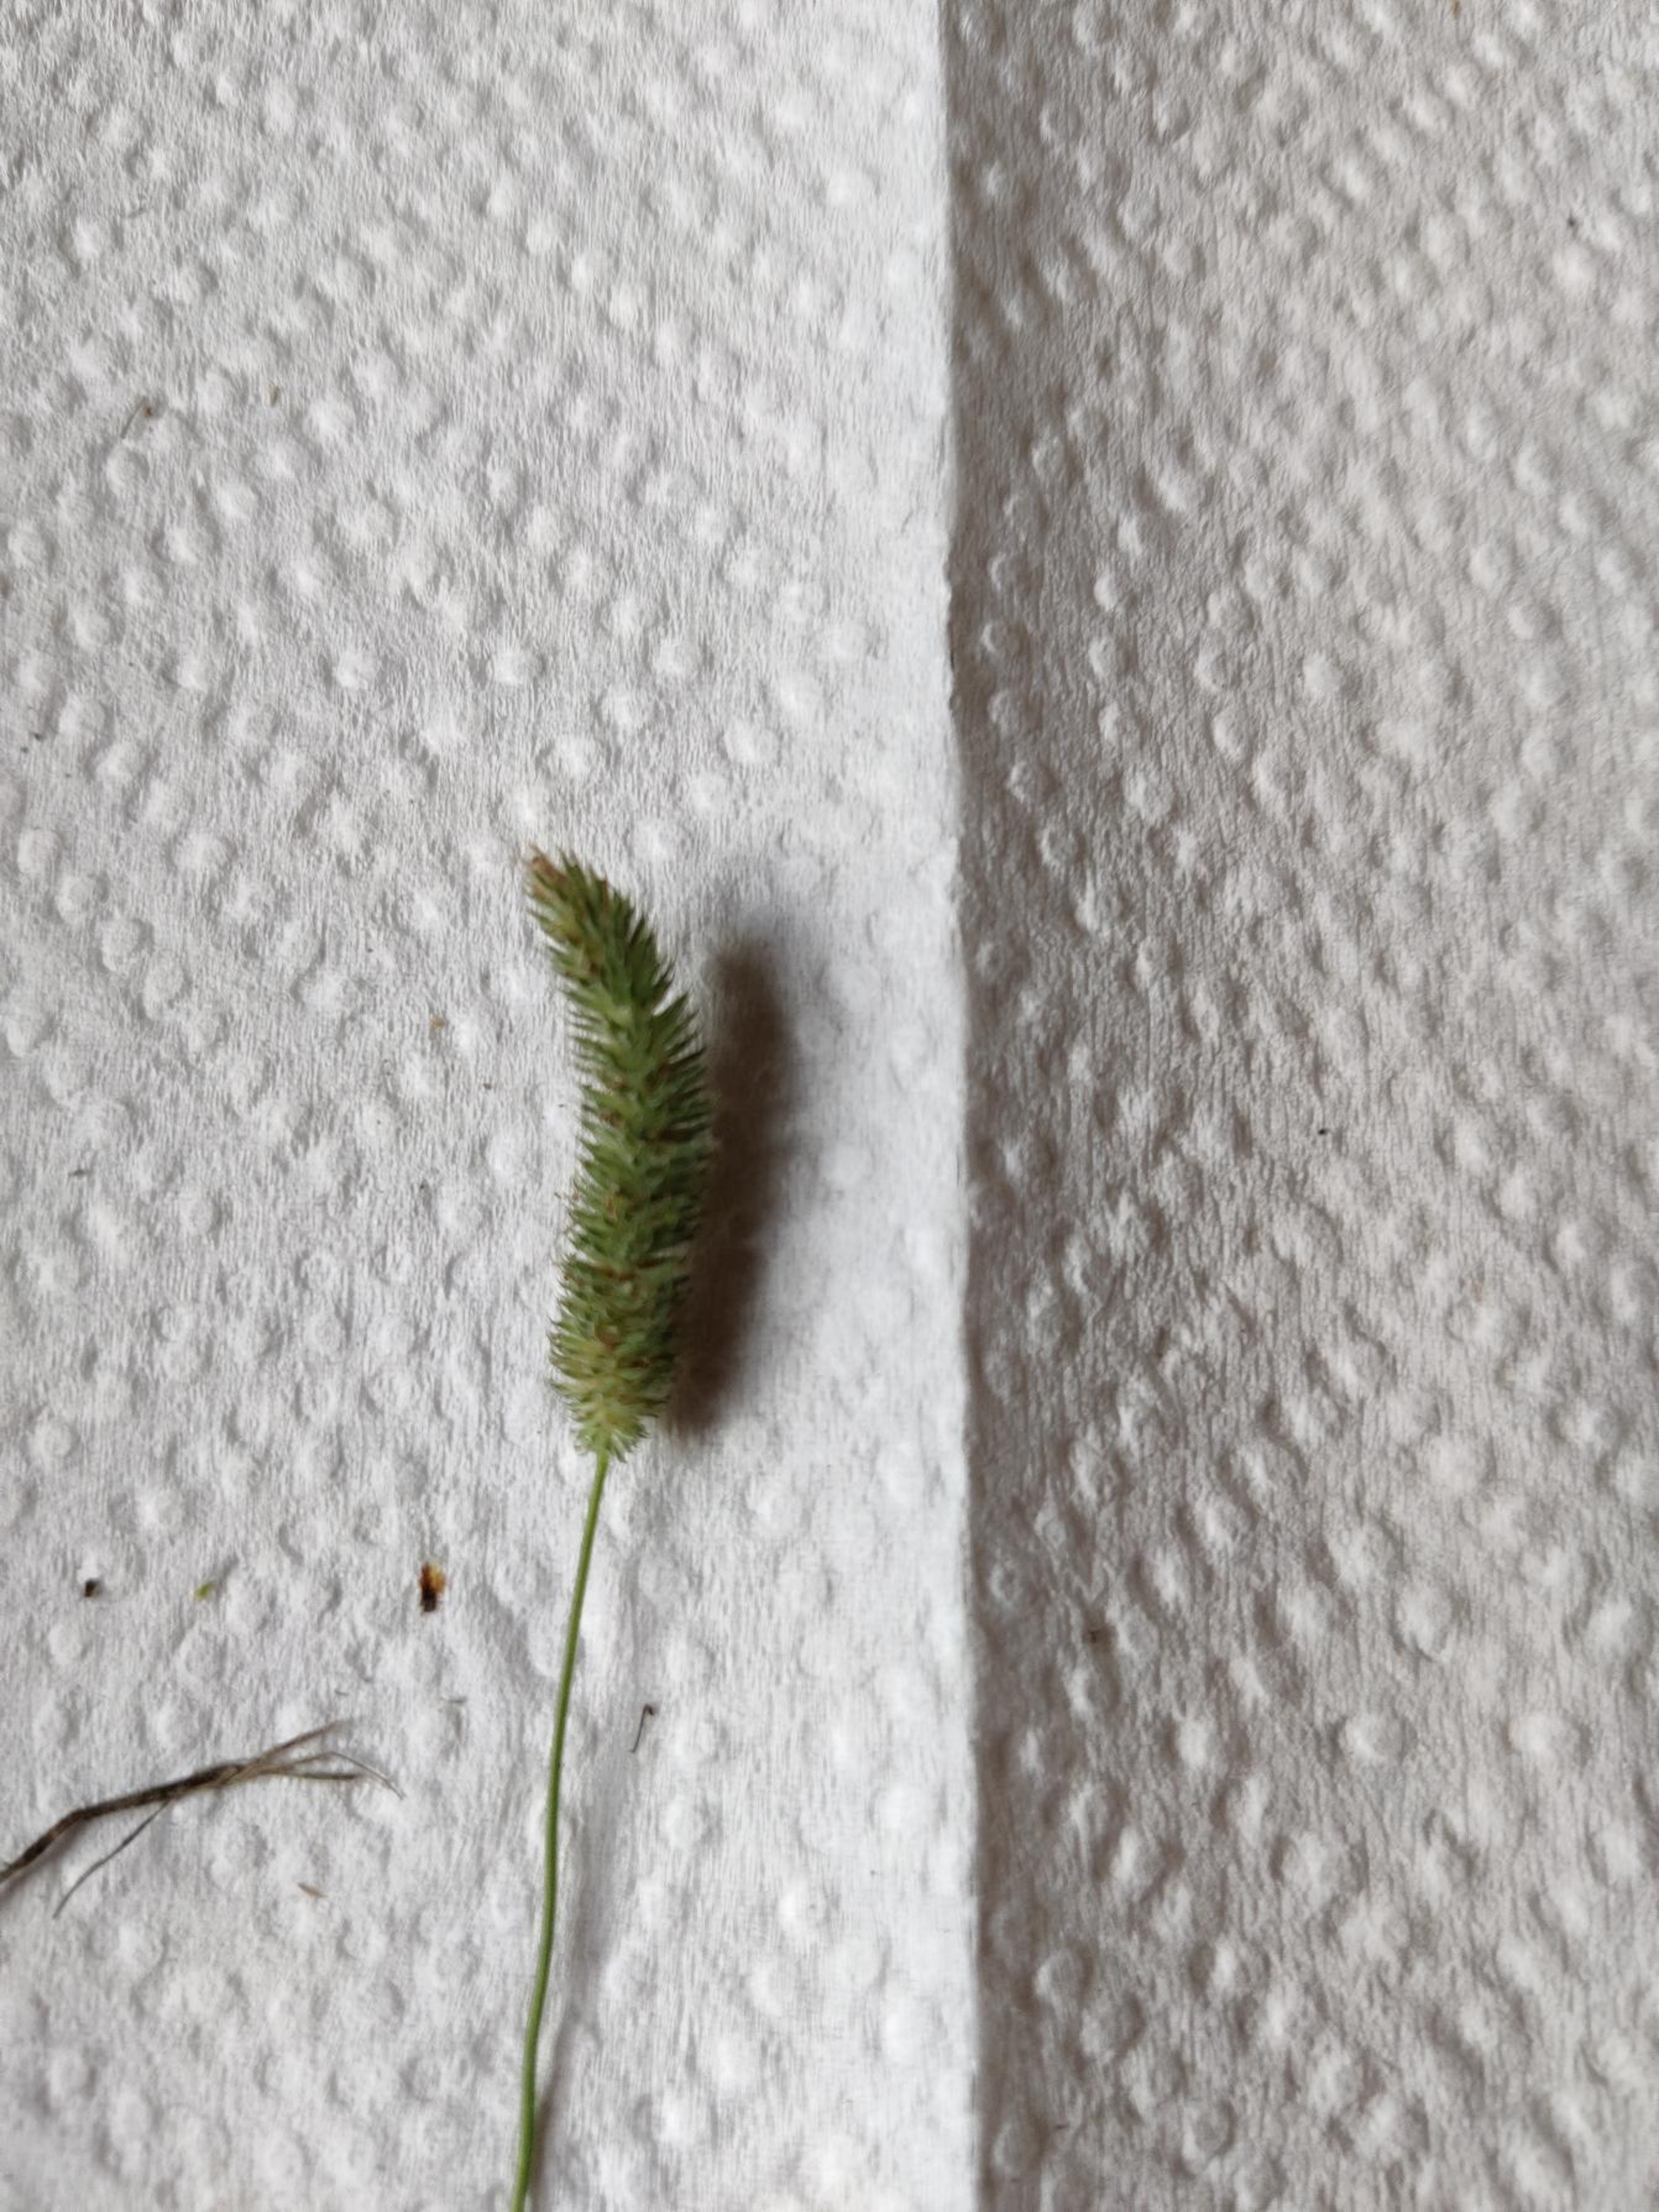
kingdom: Plantae
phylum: Tracheophyta
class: Liliopsida
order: Poales
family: Poaceae
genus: Phleum
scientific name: Phleum pratense
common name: Knold-rottehale
